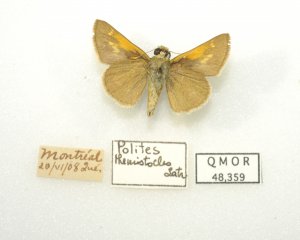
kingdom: Animalia
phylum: Arthropoda
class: Insecta
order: Lepidoptera
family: Hesperiidae
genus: Polites
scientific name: Polites themistocles
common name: Tawny-edged Skipper
